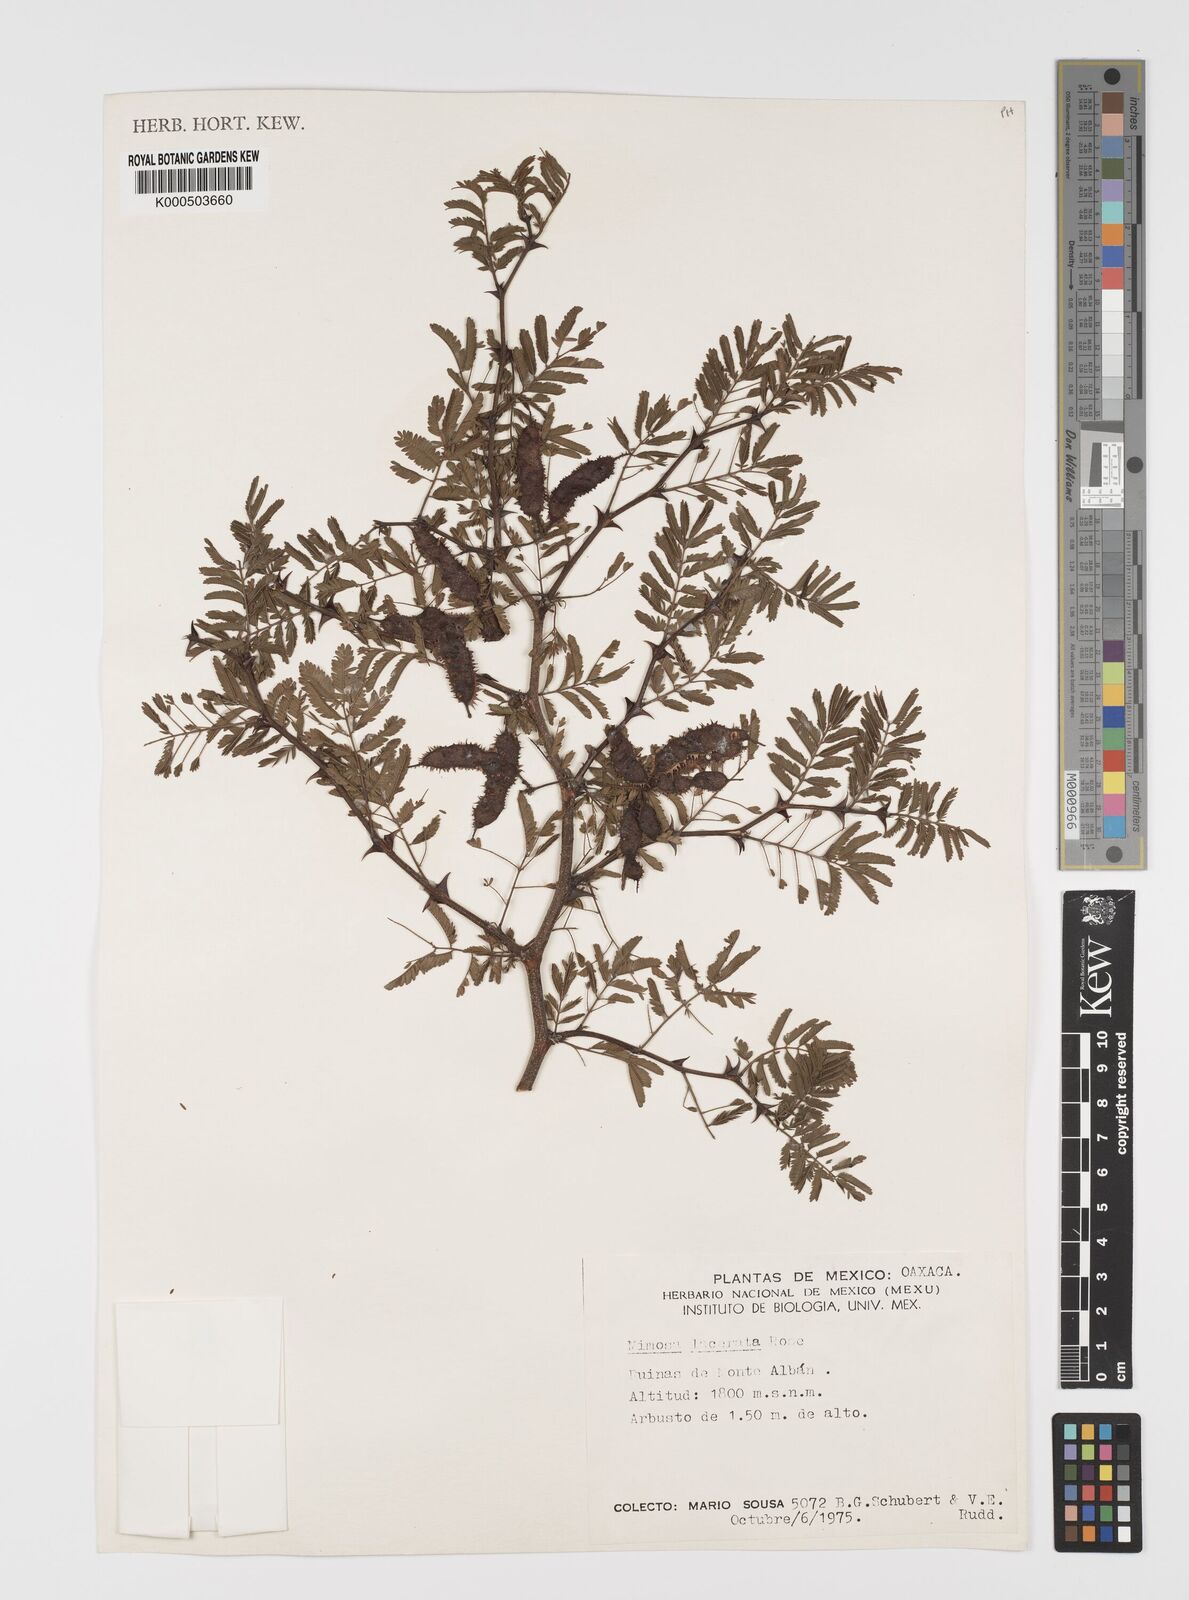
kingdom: Plantae
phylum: Tracheophyta
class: Magnoliopsida
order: Fabales
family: Fabaceae
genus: Mimosa
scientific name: Mimosa lacerata
